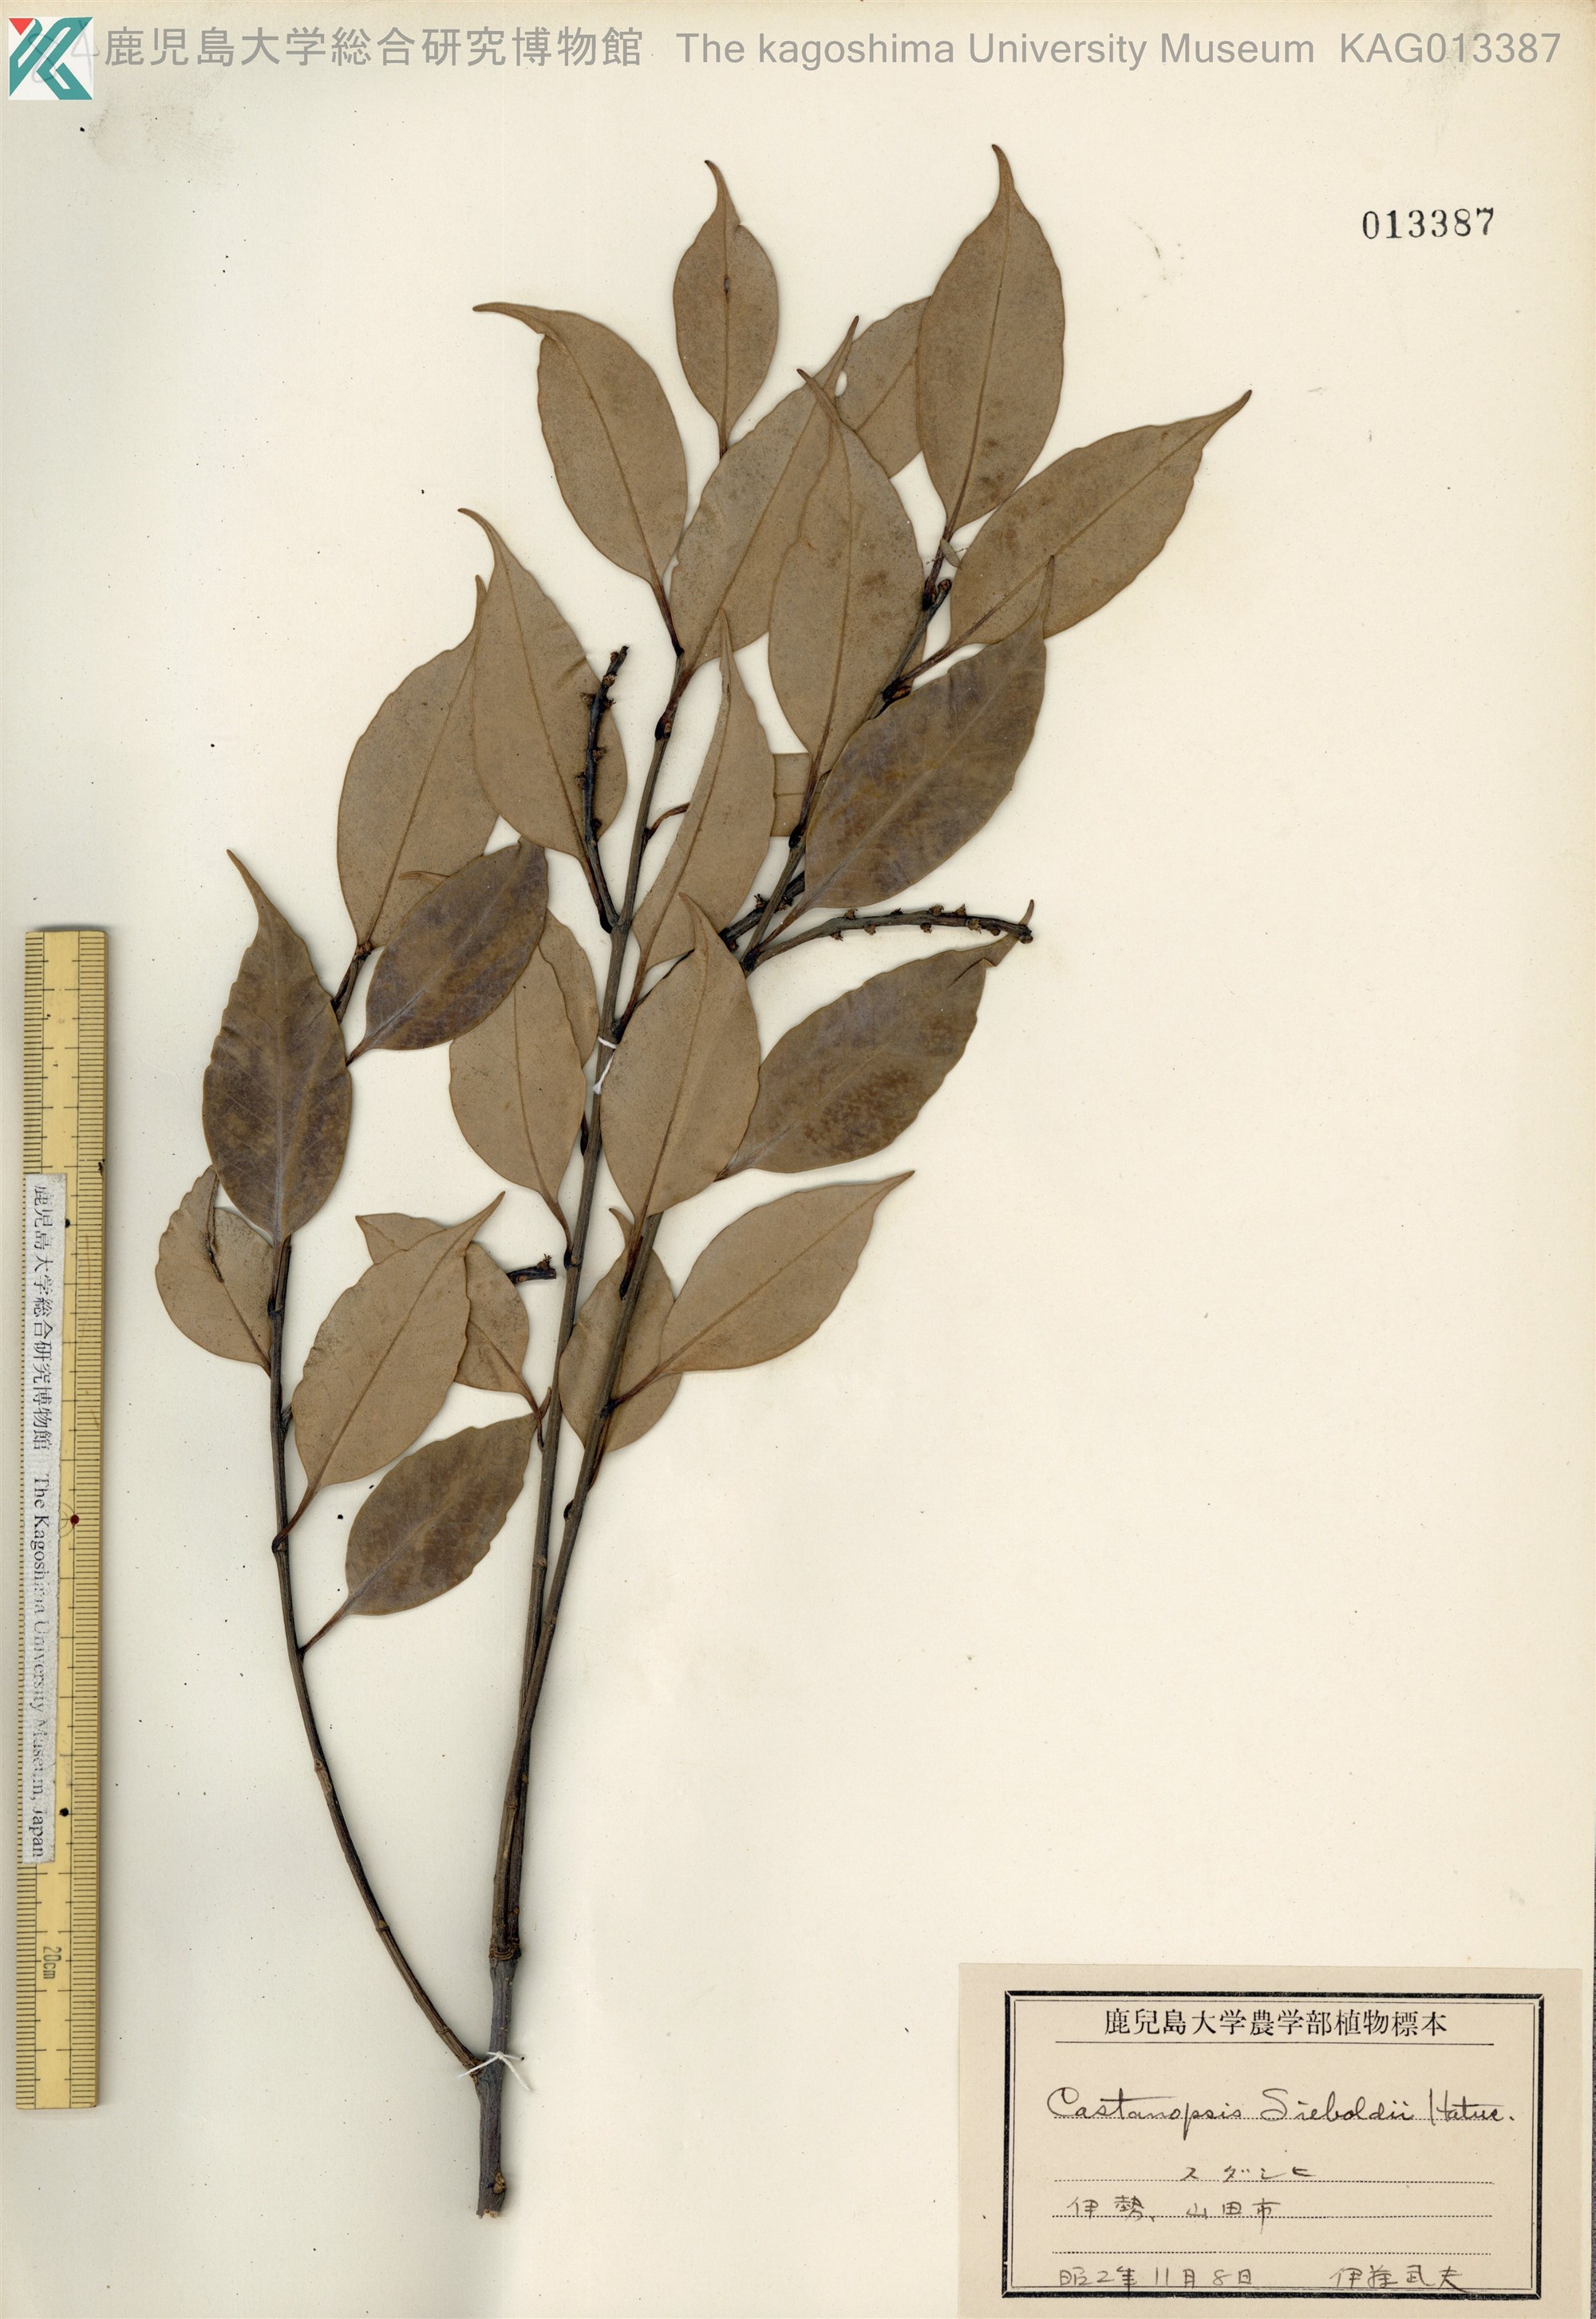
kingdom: Plantae
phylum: Tracheophyta
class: Magnoliopsida
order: Fagales
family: Fagaceae
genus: Castanopsis
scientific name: Castanopsis sieboldii
